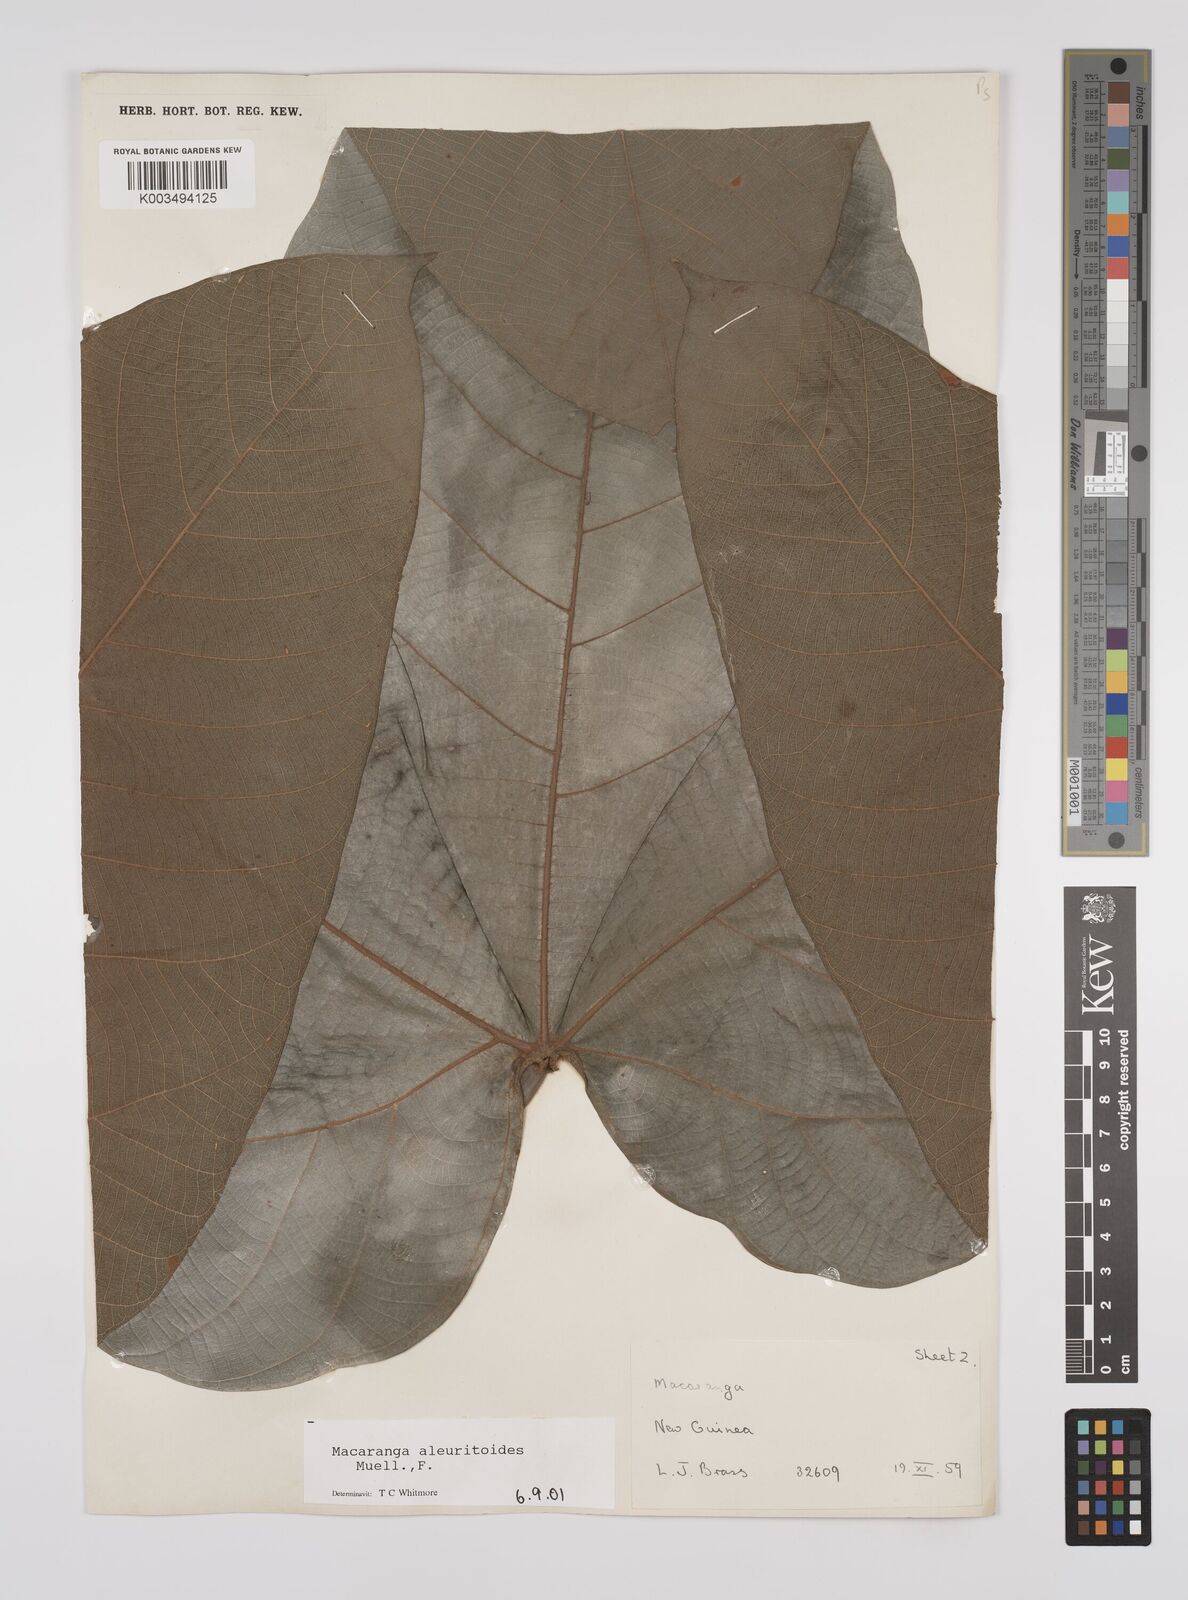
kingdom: Plantae
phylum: Tracheophyta
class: Magnoliopsida
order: Malpighiales
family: Euphorbiaceae
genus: Macaranga
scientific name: Macaranga aleuritoides
